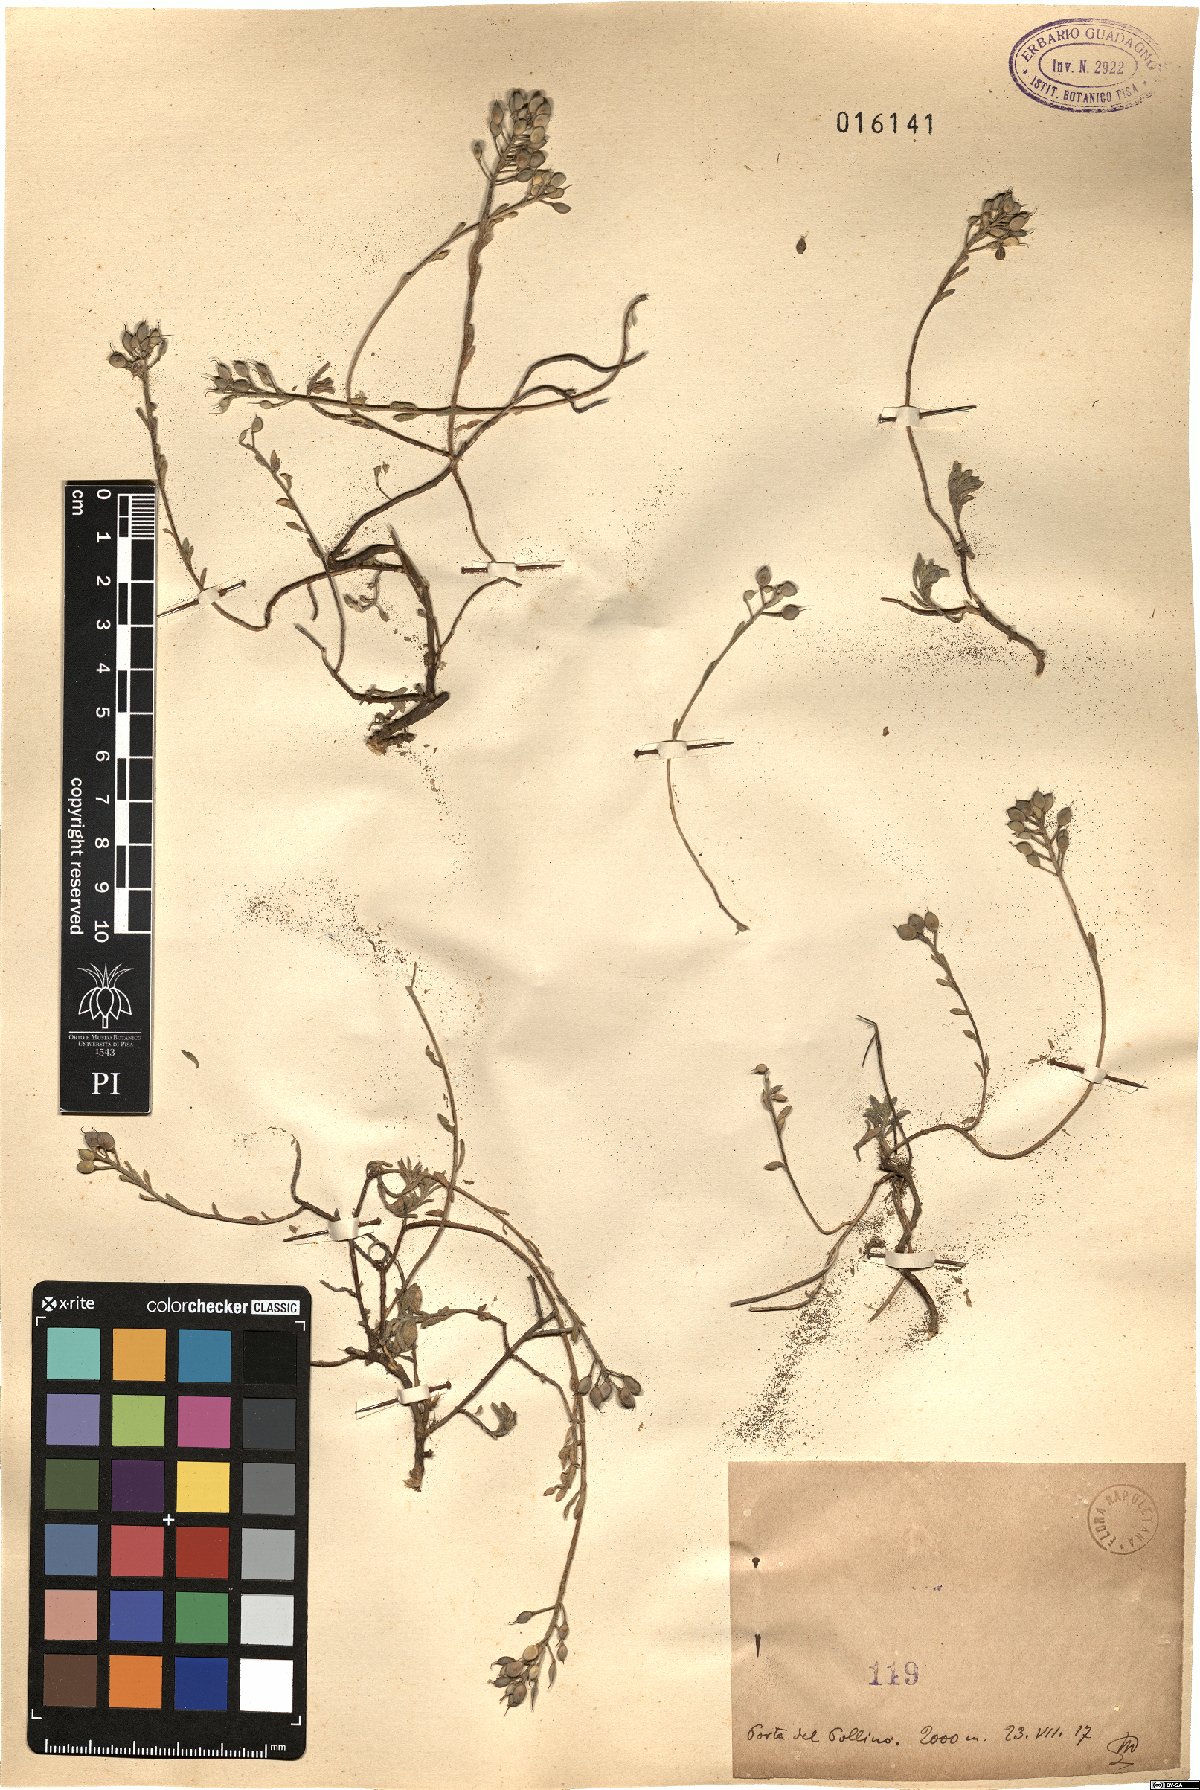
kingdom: Plantae
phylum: Tracheophyta
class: Magnoliopsida
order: Brassicales
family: Brassicaceae
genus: Alyssum
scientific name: Alyssum
